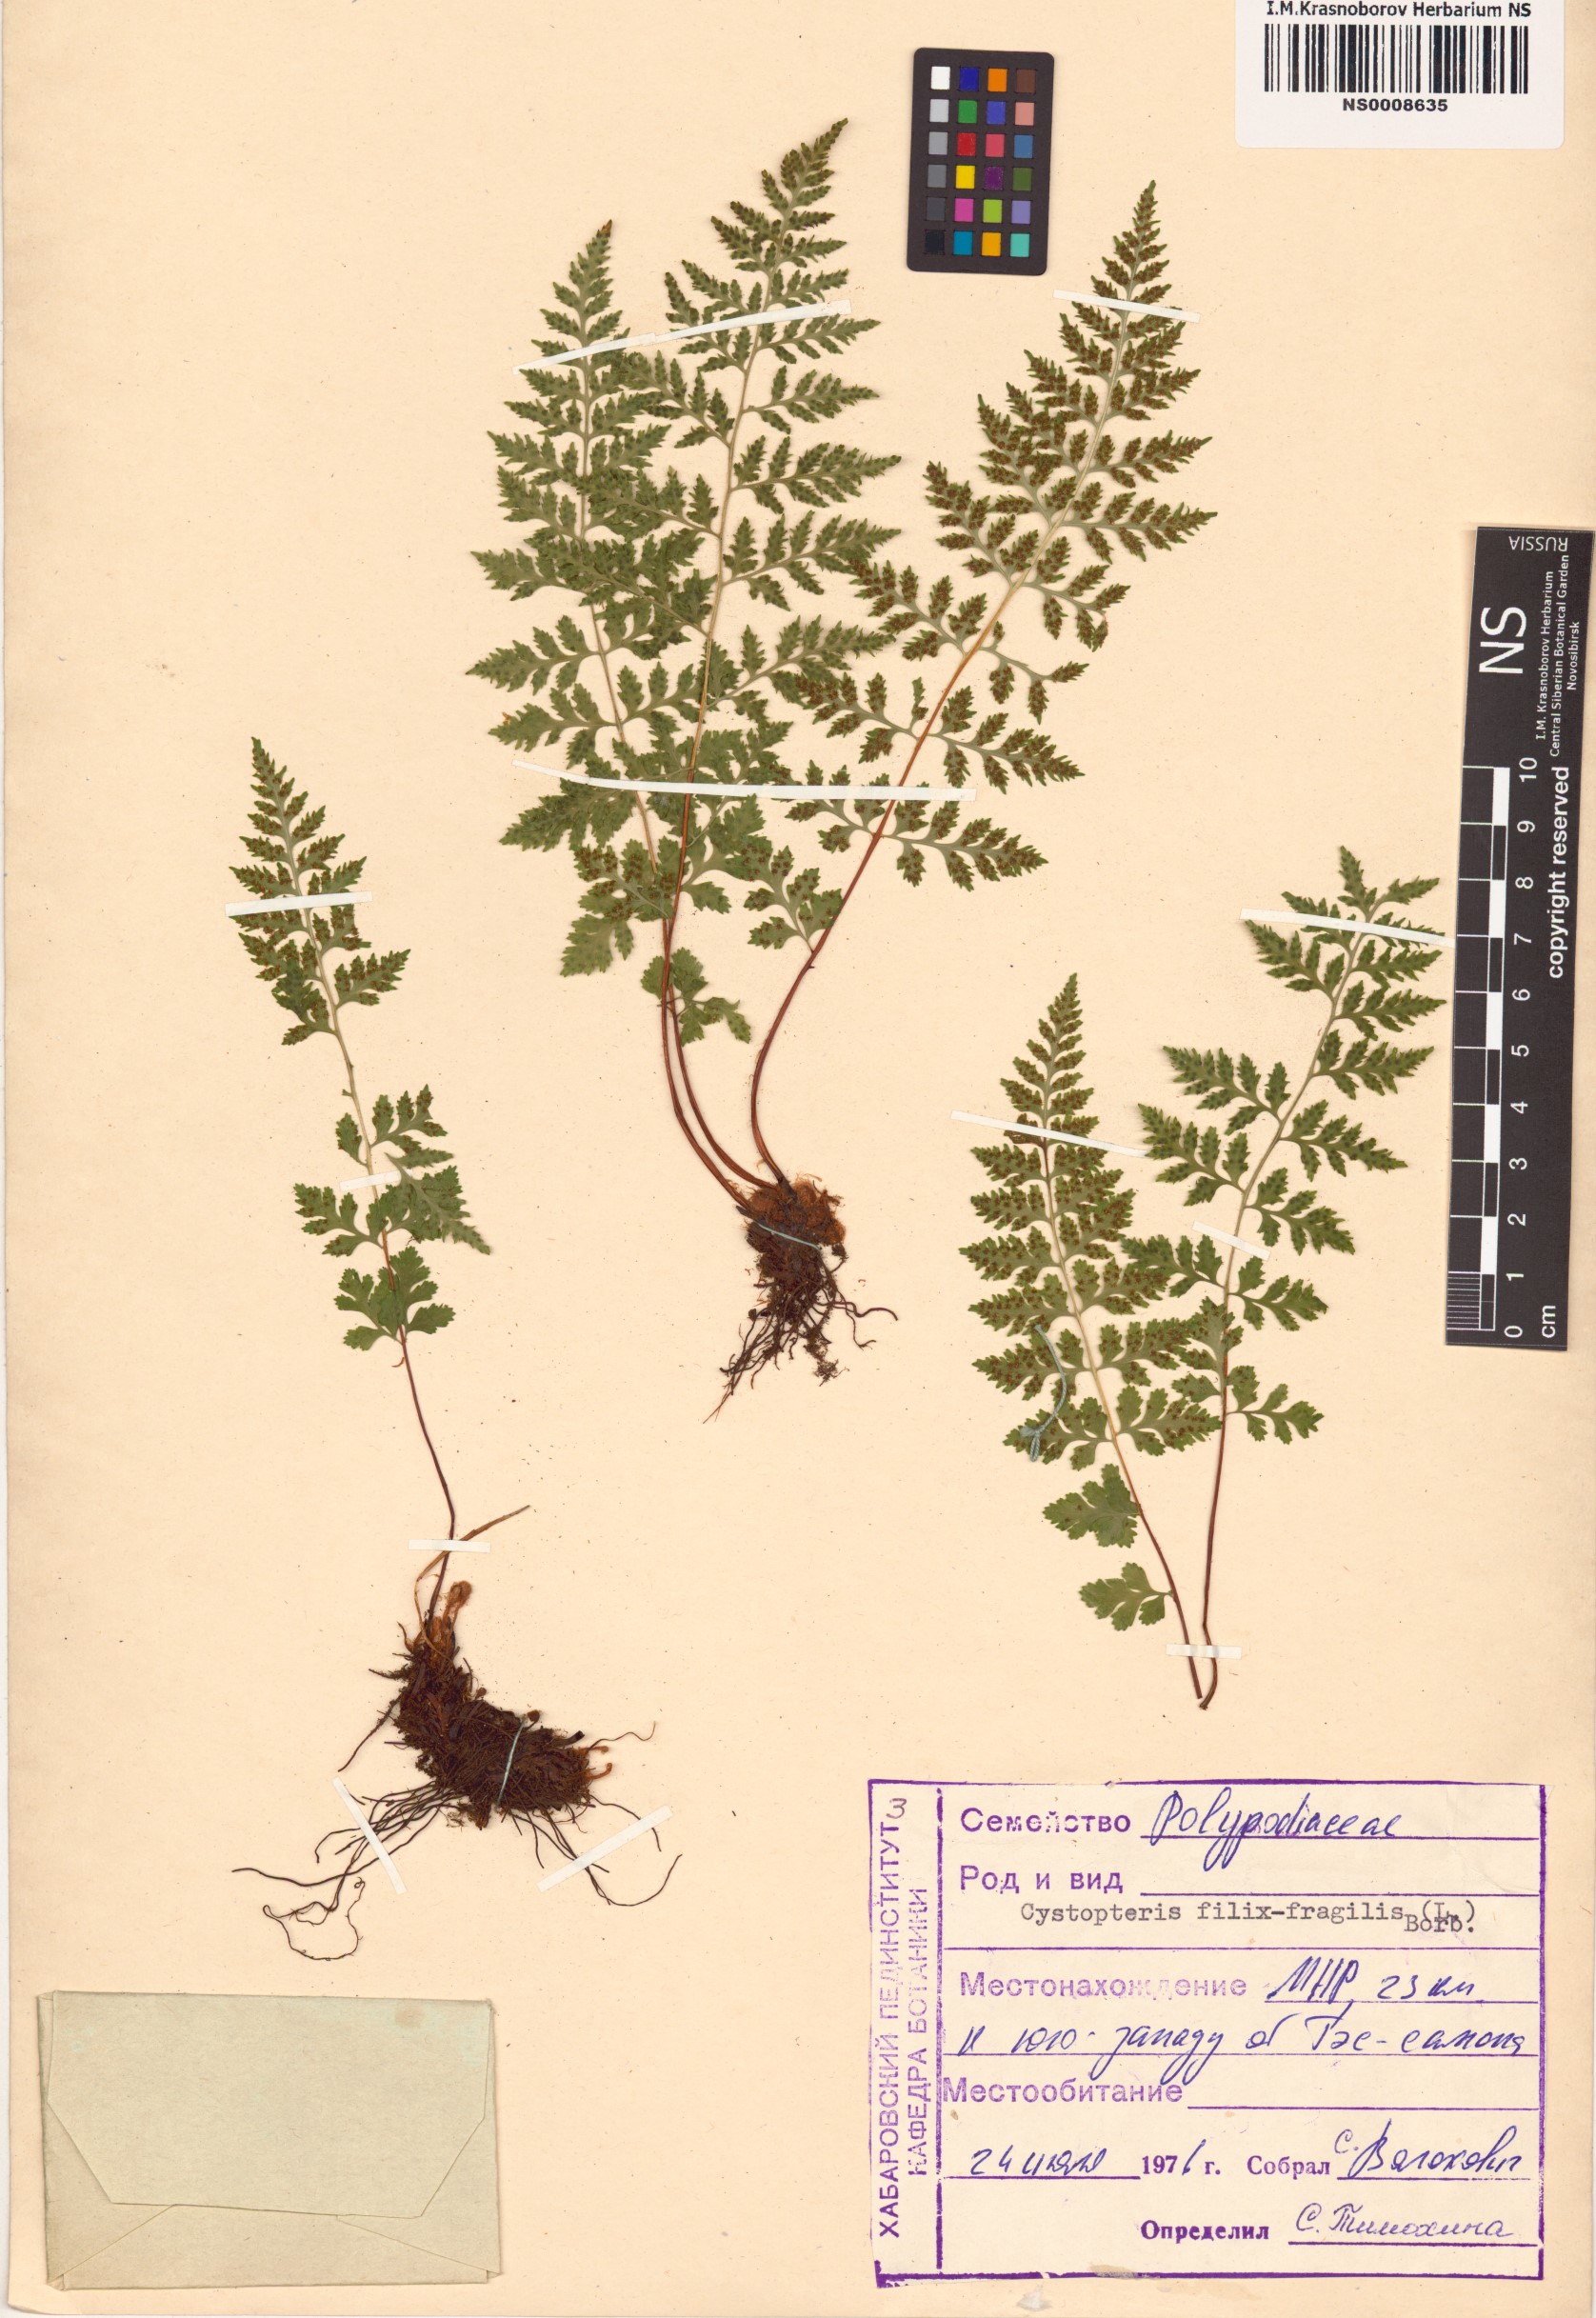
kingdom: Plantae
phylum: Tracheophyta
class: Polypodiopsida
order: Polypodiales
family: Cystopteridaceae
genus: Cystopteris
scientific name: Cystopteris fragilis
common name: Brittle bladder fern
